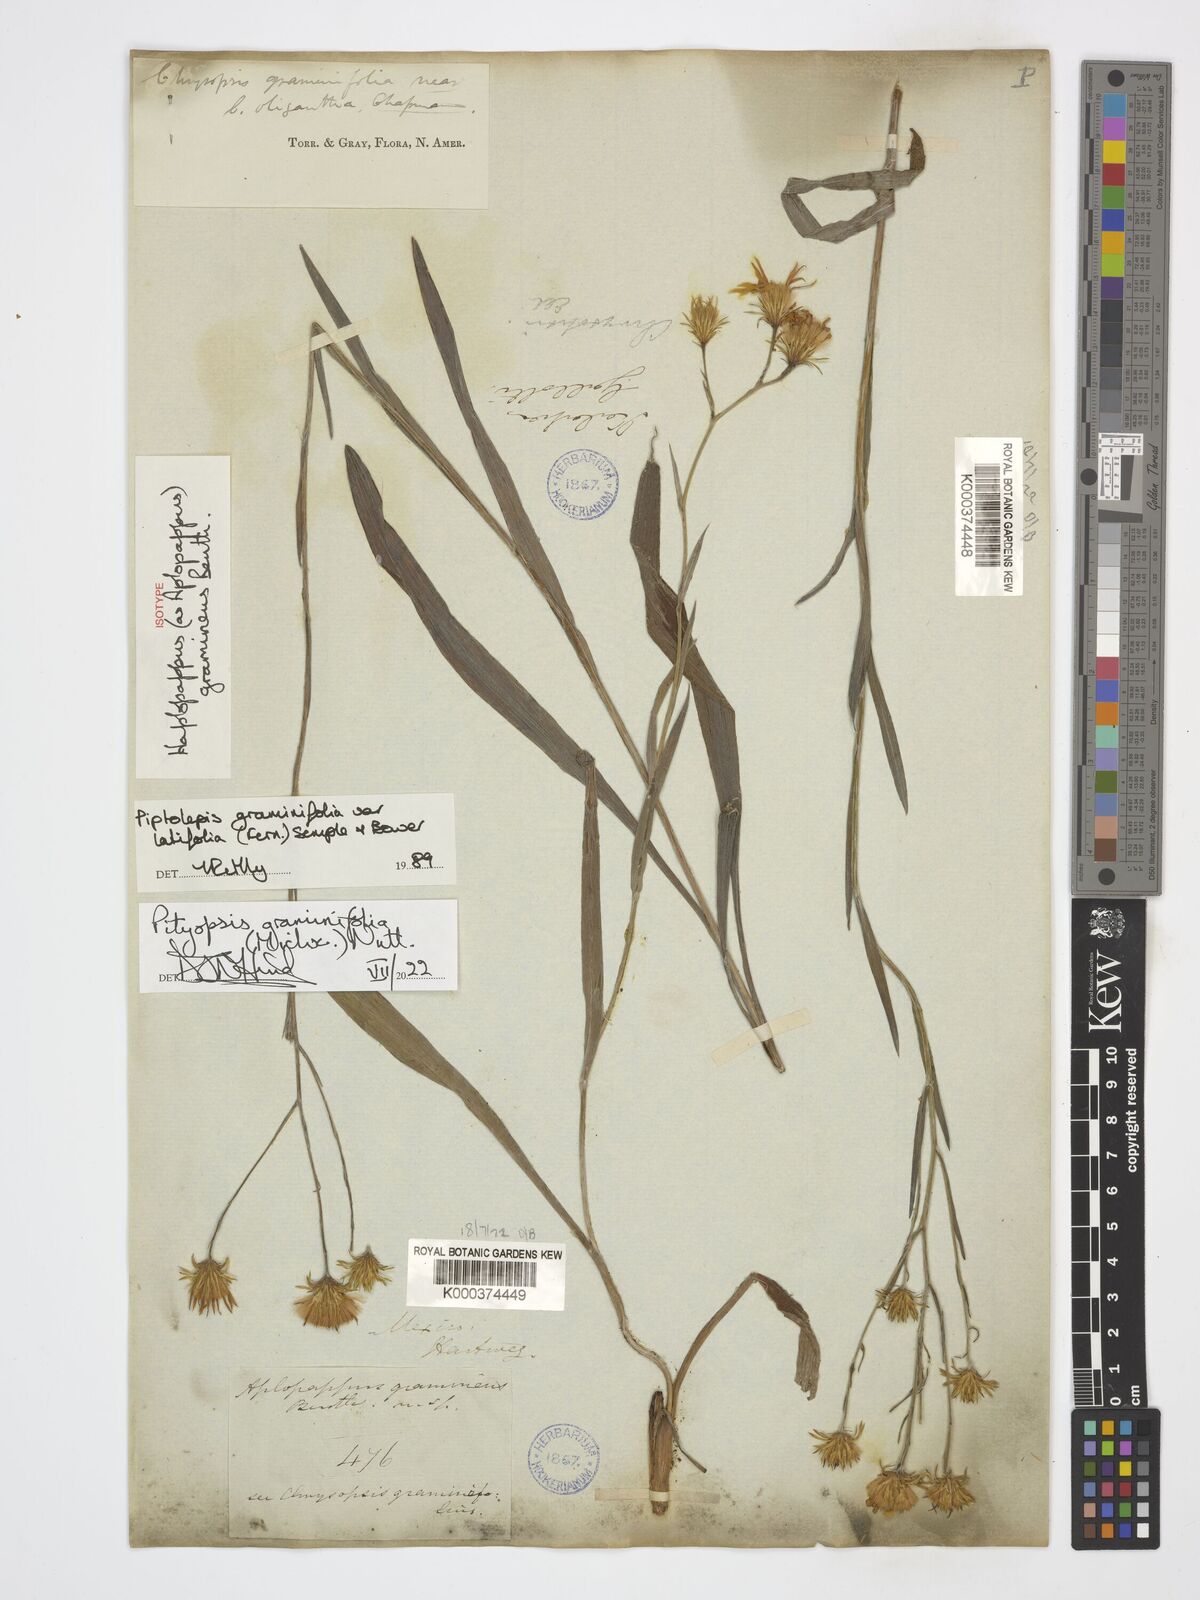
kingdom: Plantae
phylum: Tracheophyta
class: Magnoliopsida
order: Asterales
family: Asteraceae
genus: Pityopsis
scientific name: Pityopsis graminifolia
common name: Grass-leaf golden-aster
